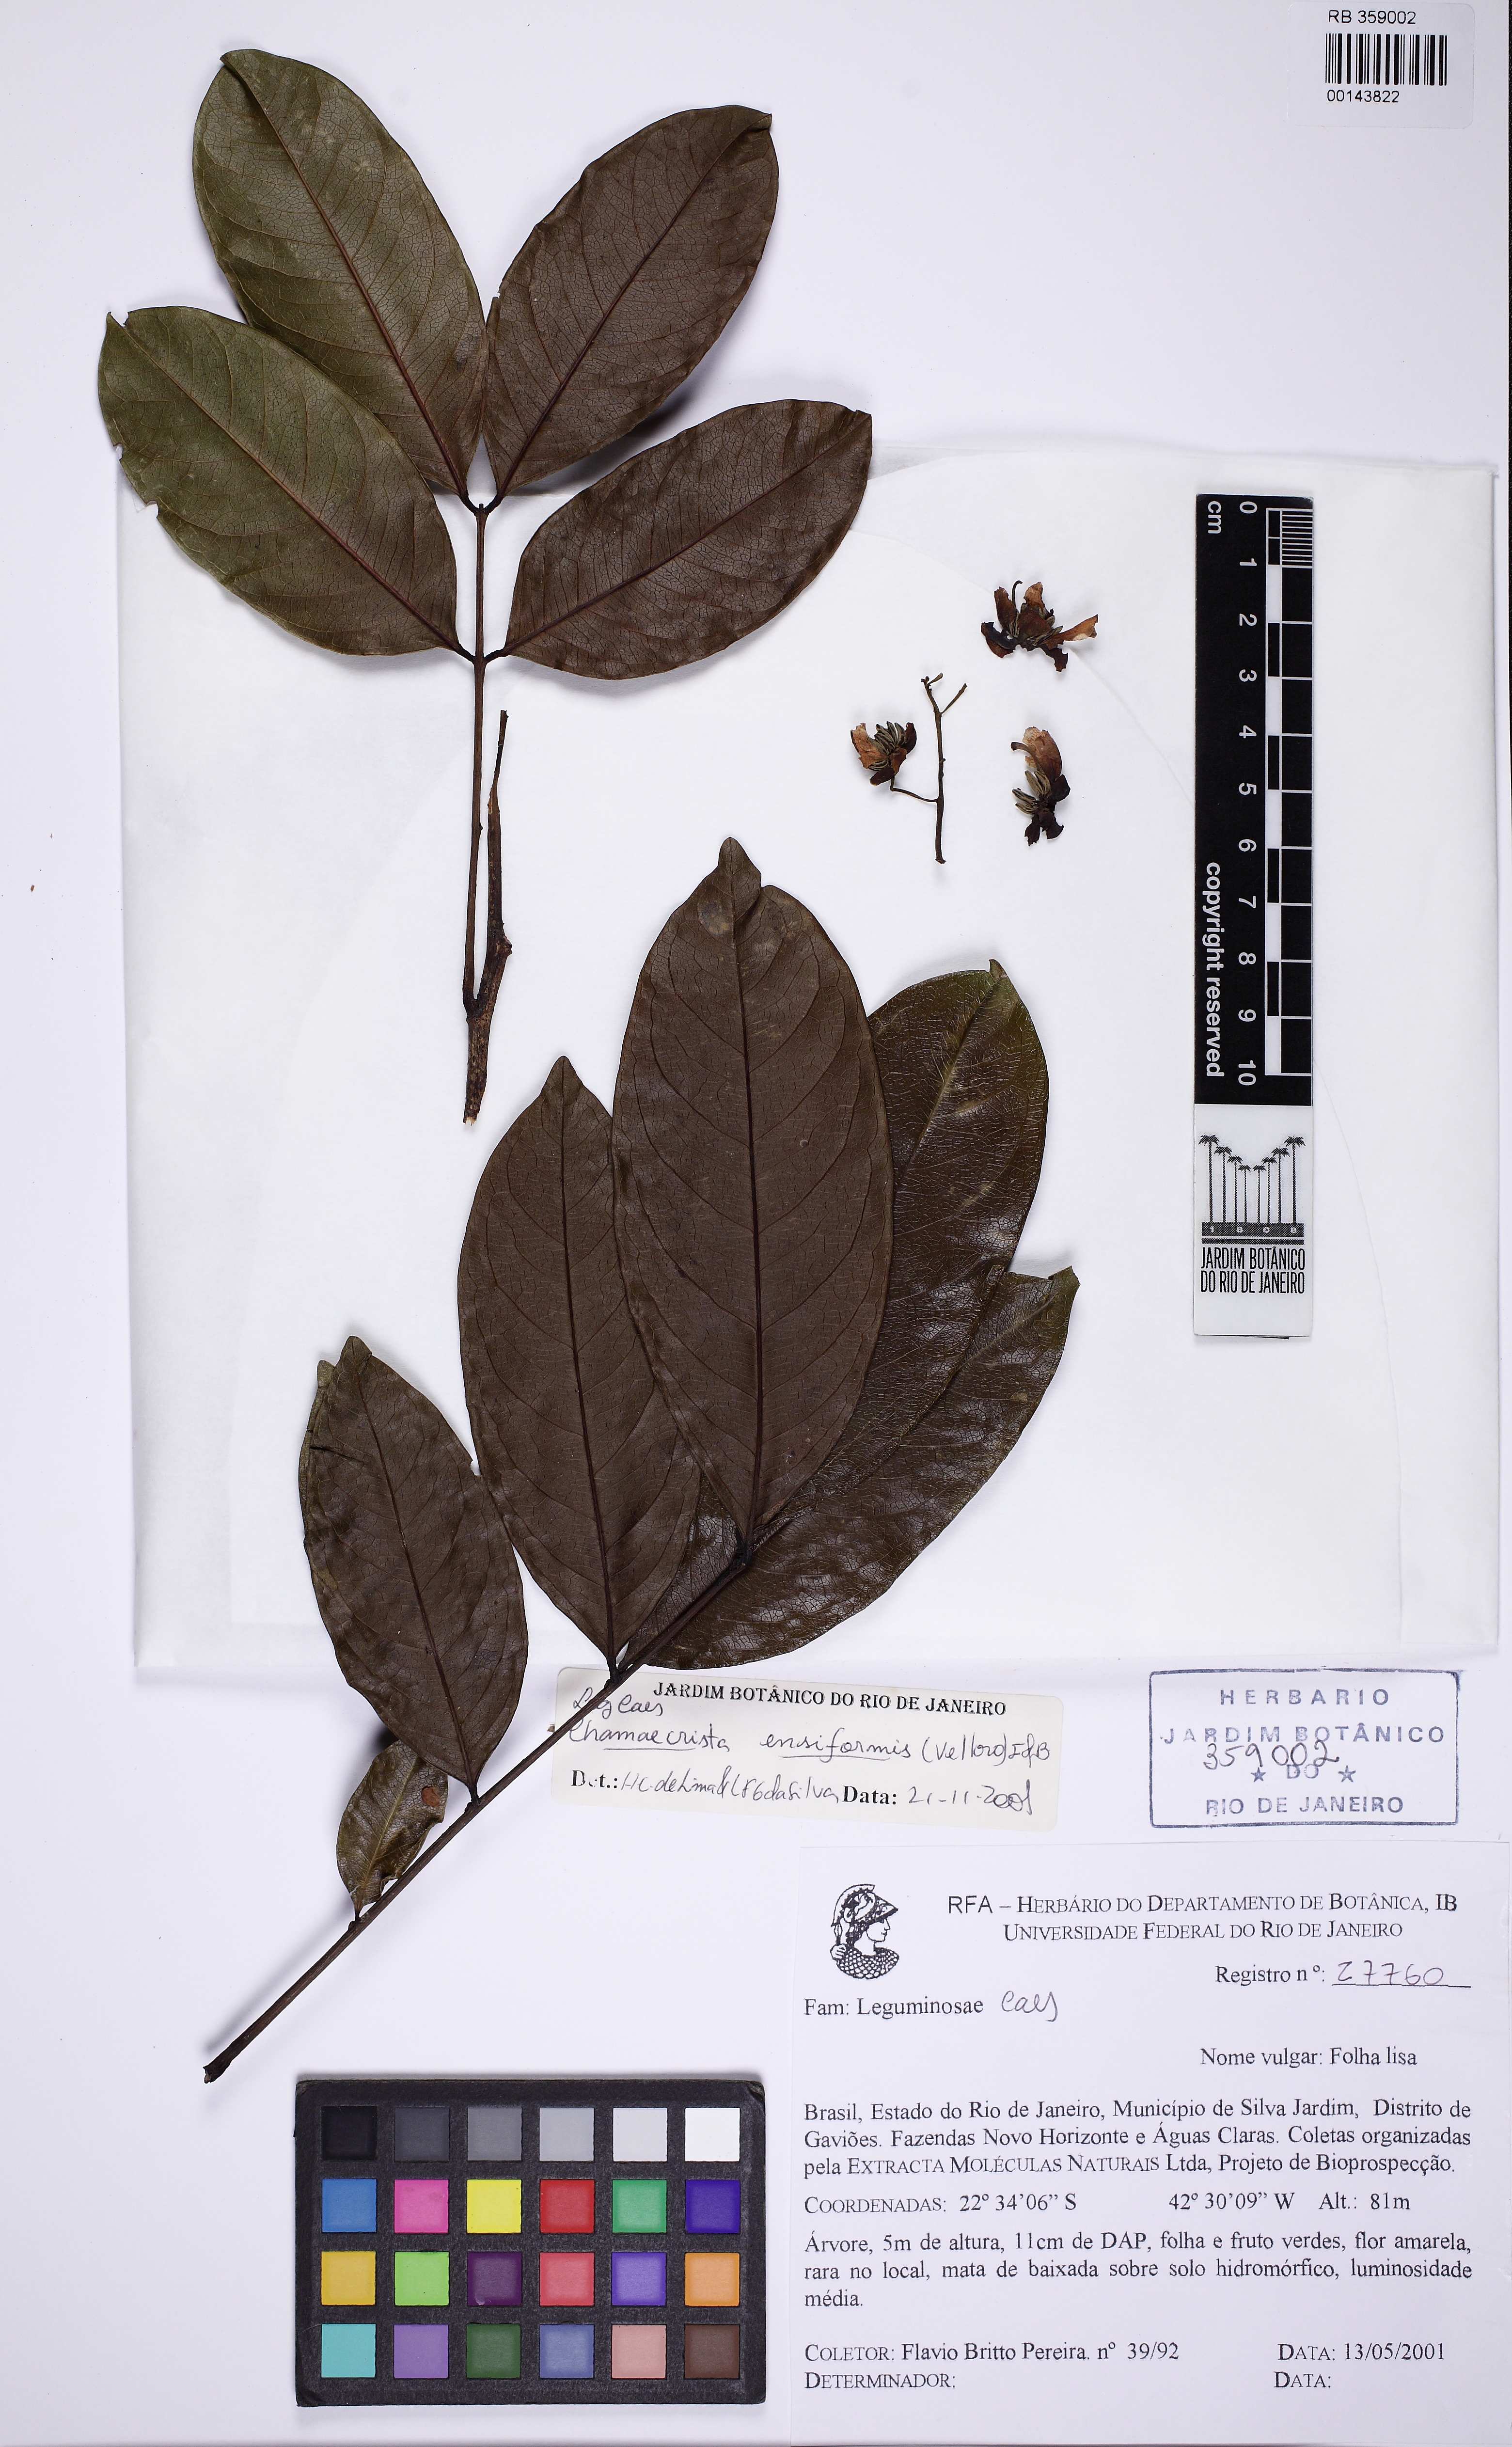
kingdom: Plantae
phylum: Tracheophyta
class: Magnoliopsida
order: Fabales
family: Fabaceae
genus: Chamaecrista
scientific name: Chamaecrista ensiformis
